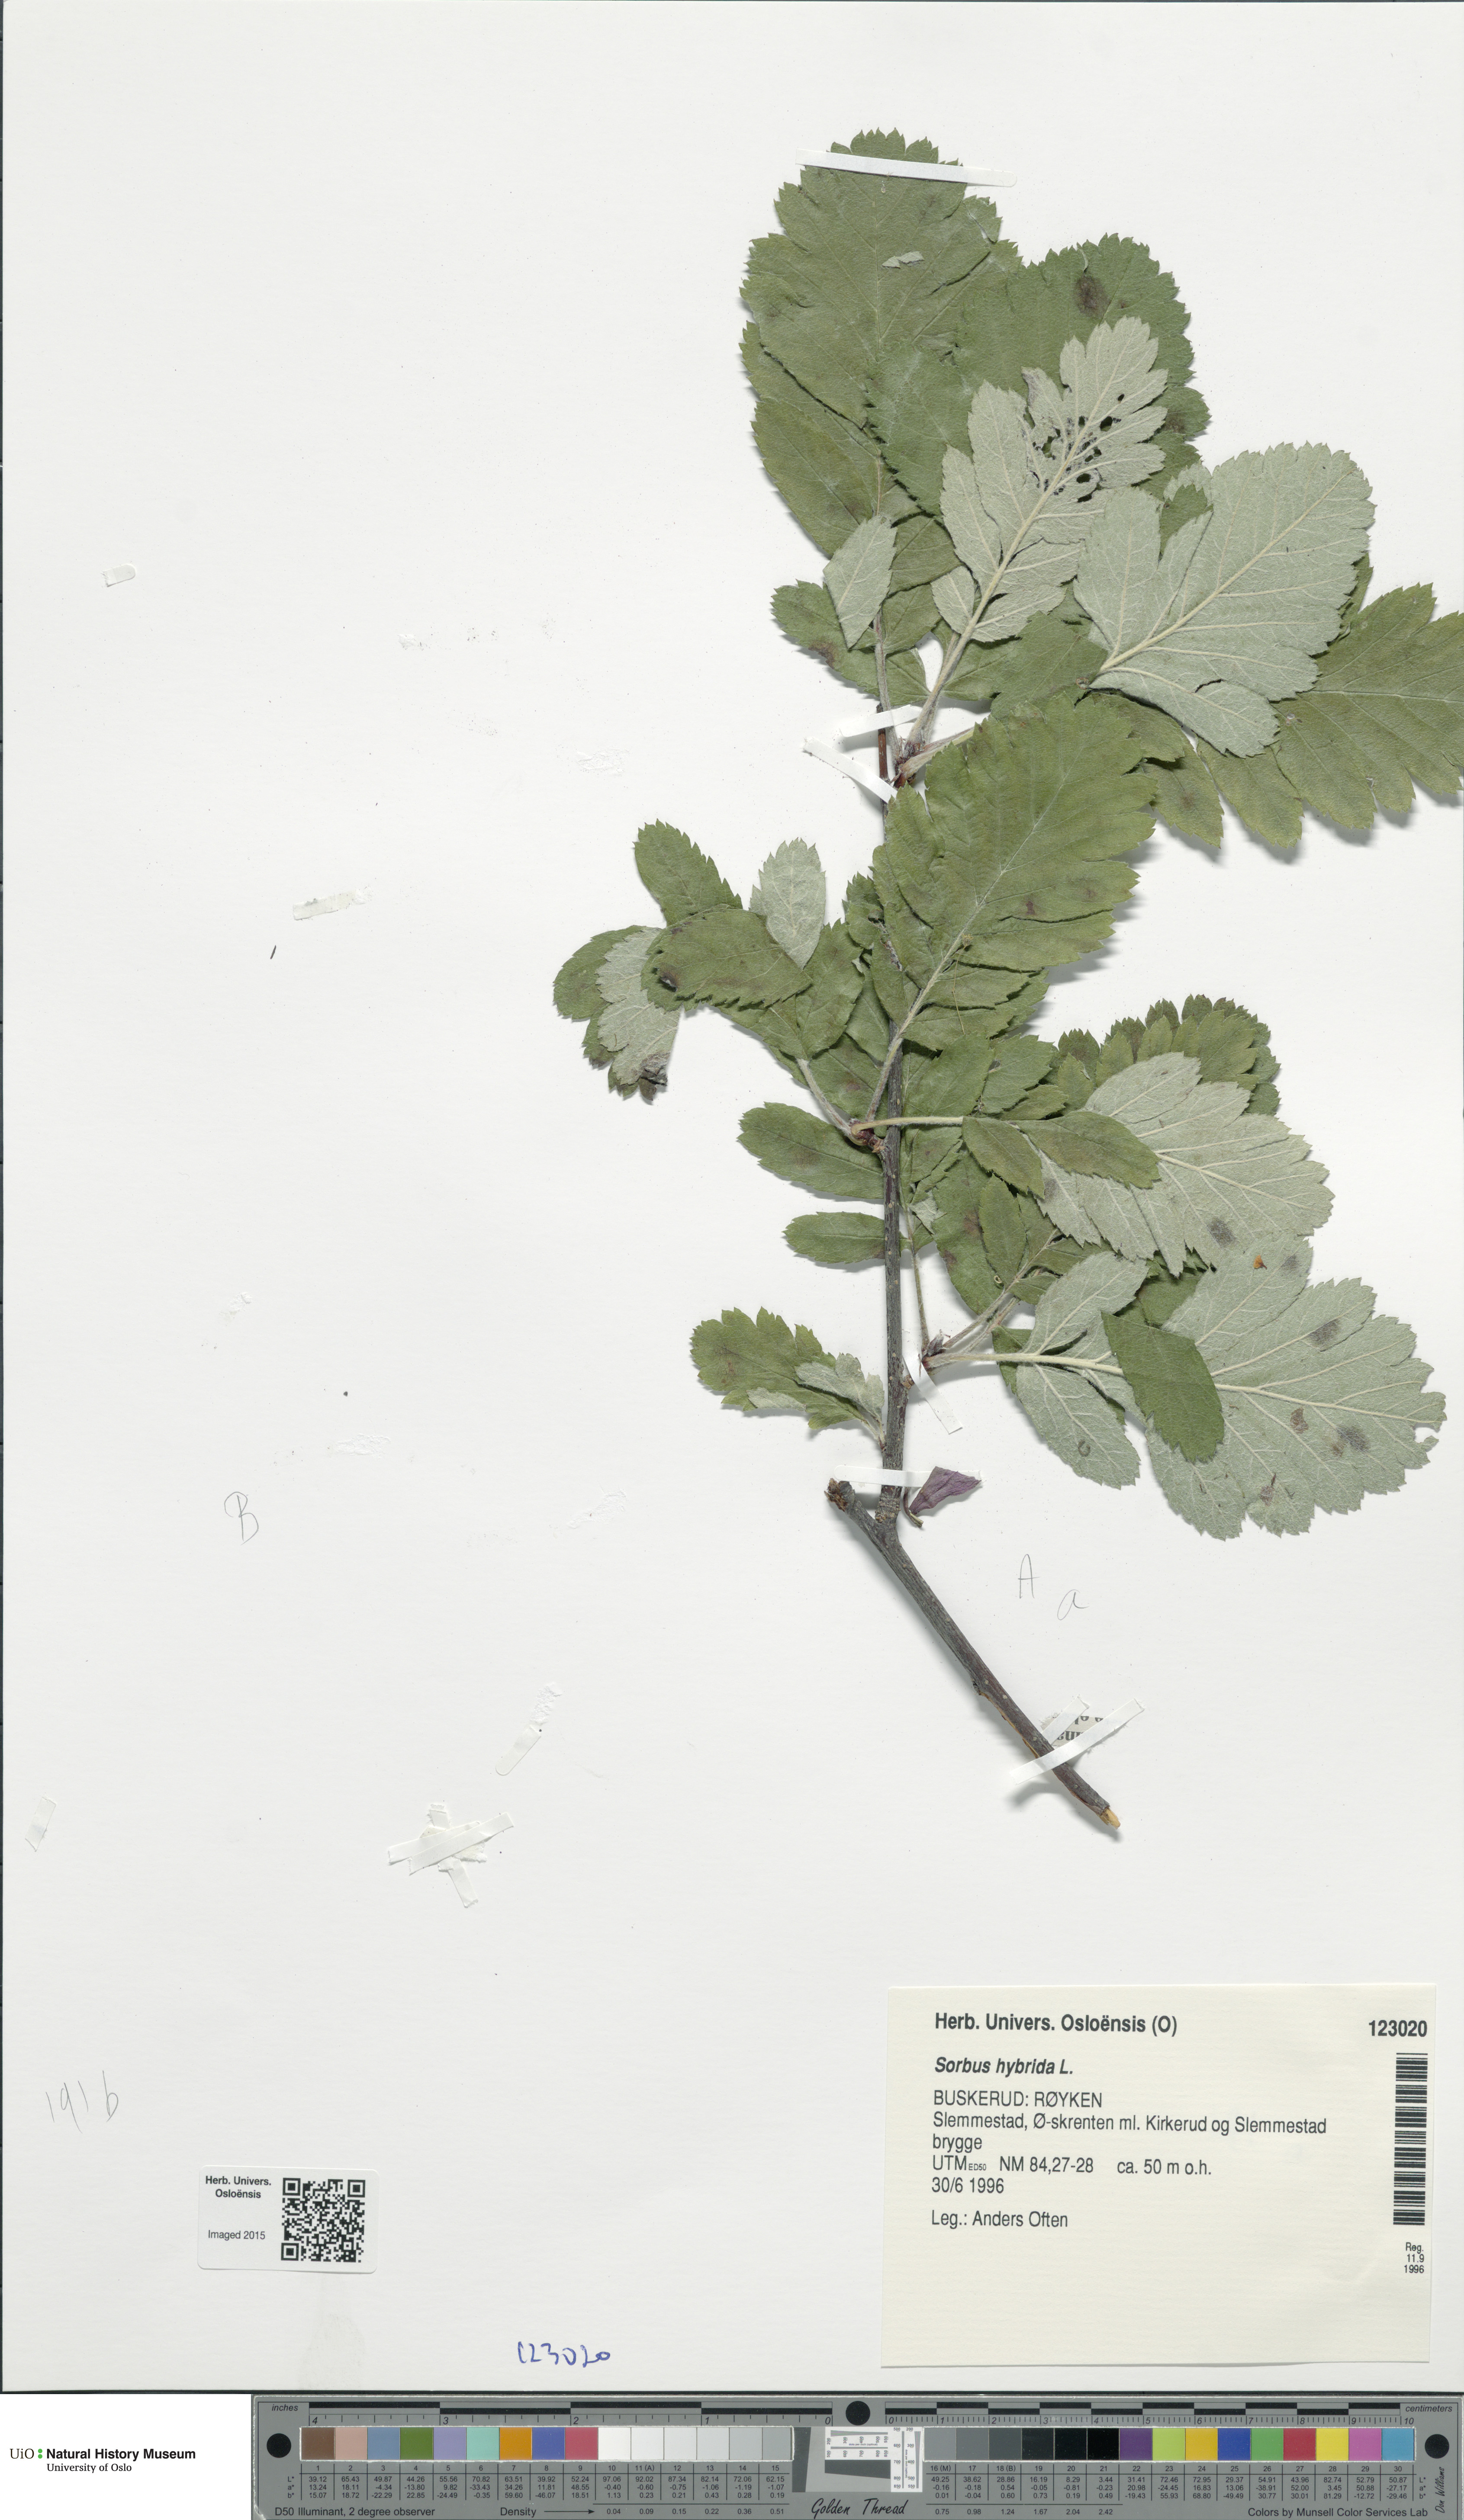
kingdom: Plantae
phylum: Tracheophyta
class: Magnoliopsida
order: Rosales
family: Rosaceae
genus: Hedlundia
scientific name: Hedlundia hybrida
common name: Swedish service-tree
